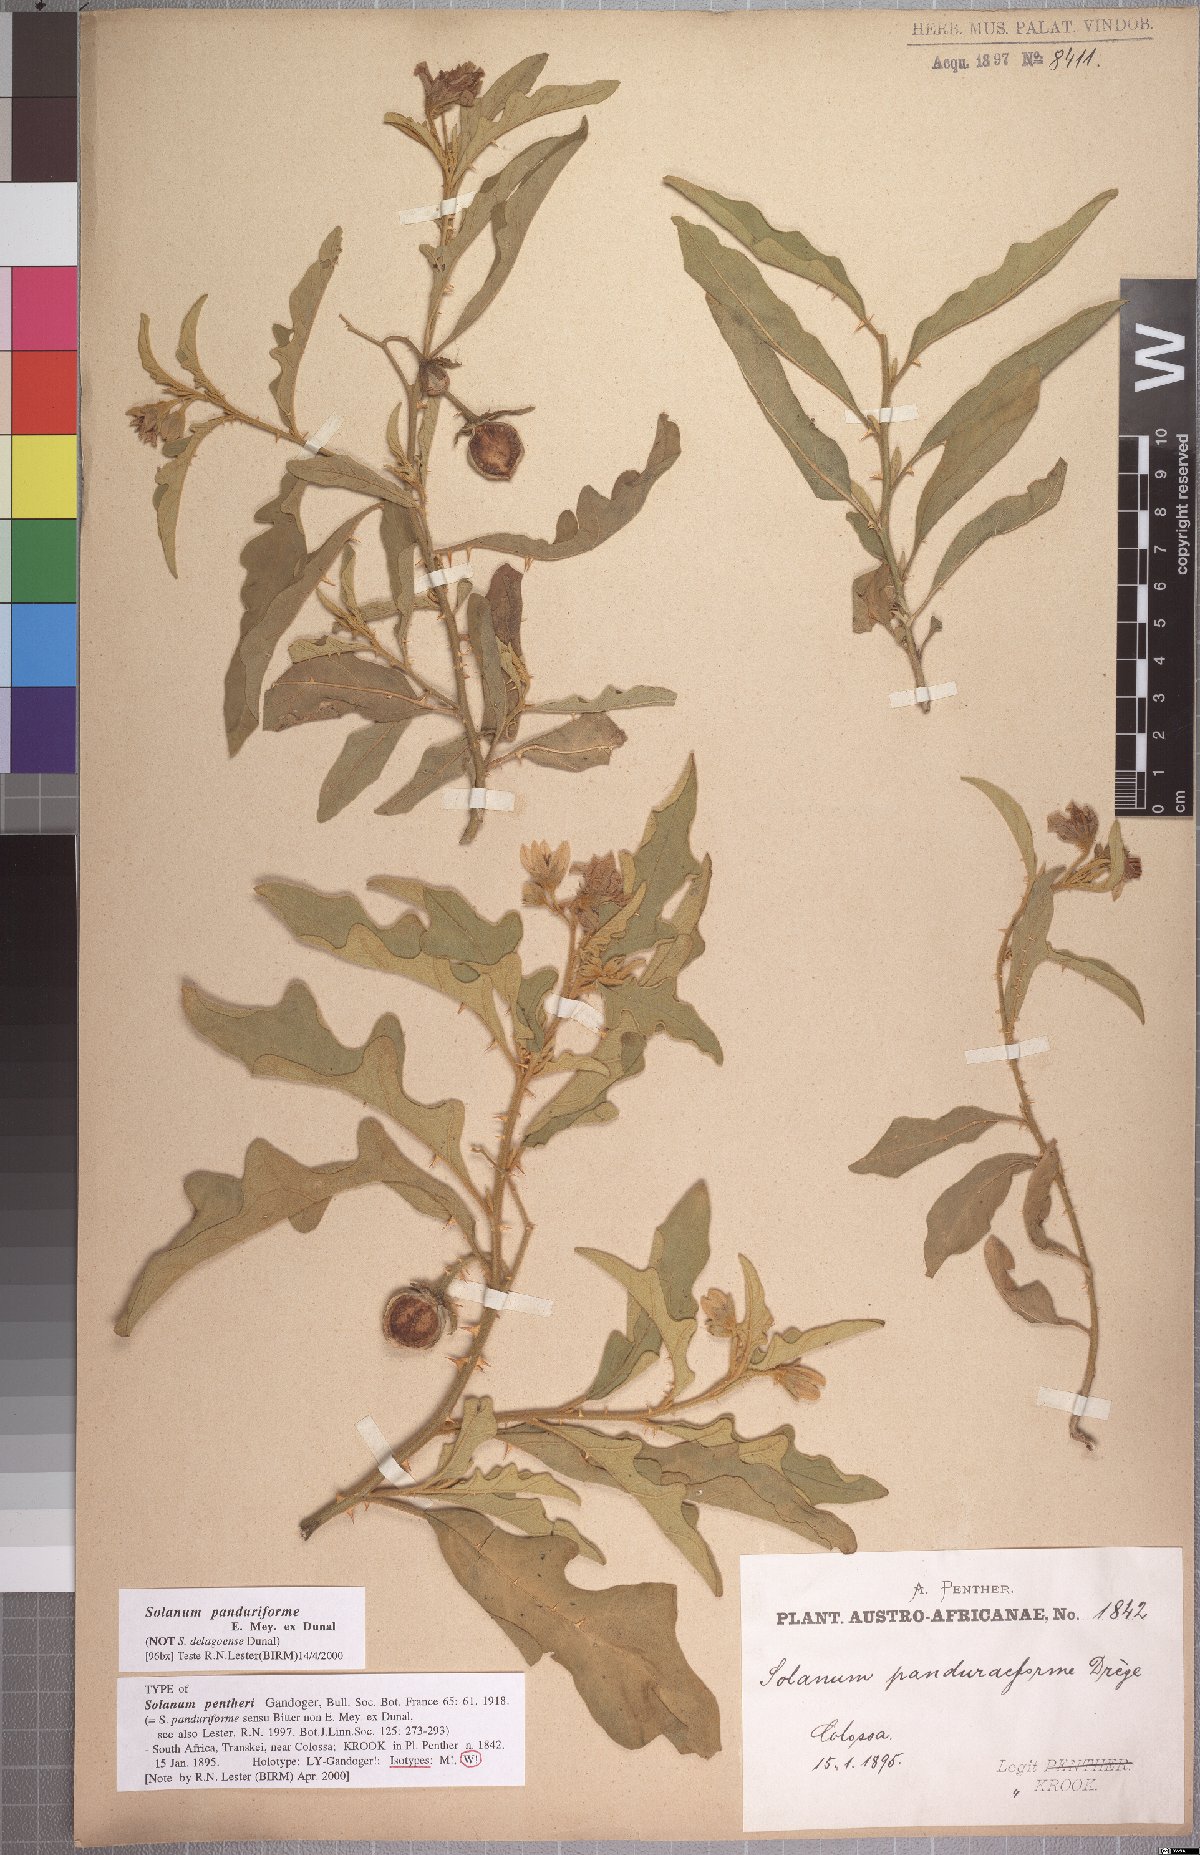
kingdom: Plantae
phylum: Tracheophyta
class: Magnoliopsida
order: Solanales
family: Solanaceae
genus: Solanum
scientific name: Solanum campylacanthum
